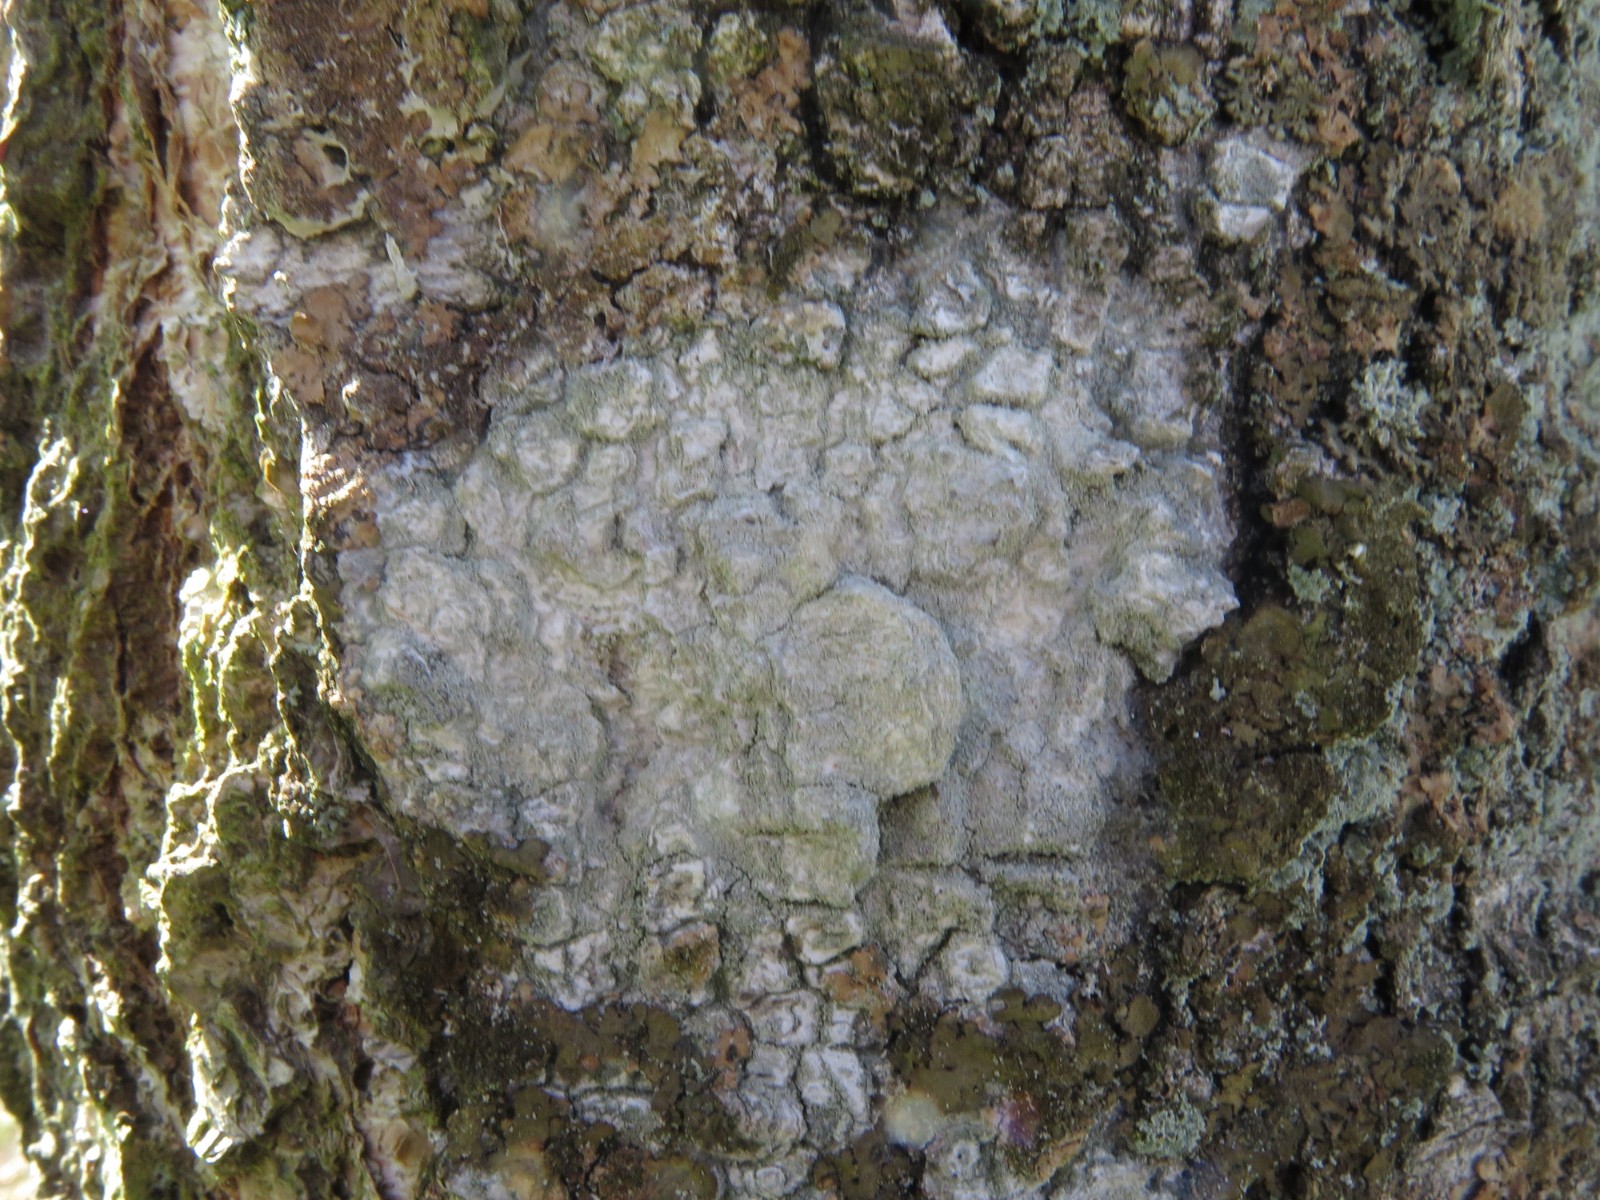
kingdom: Fungi
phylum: Ascomycota
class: Lecanoromycetes
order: Ostropales
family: Phlyctidaceae
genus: Phlyctis
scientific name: Phlyctis argena
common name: almindelig sølvlav
